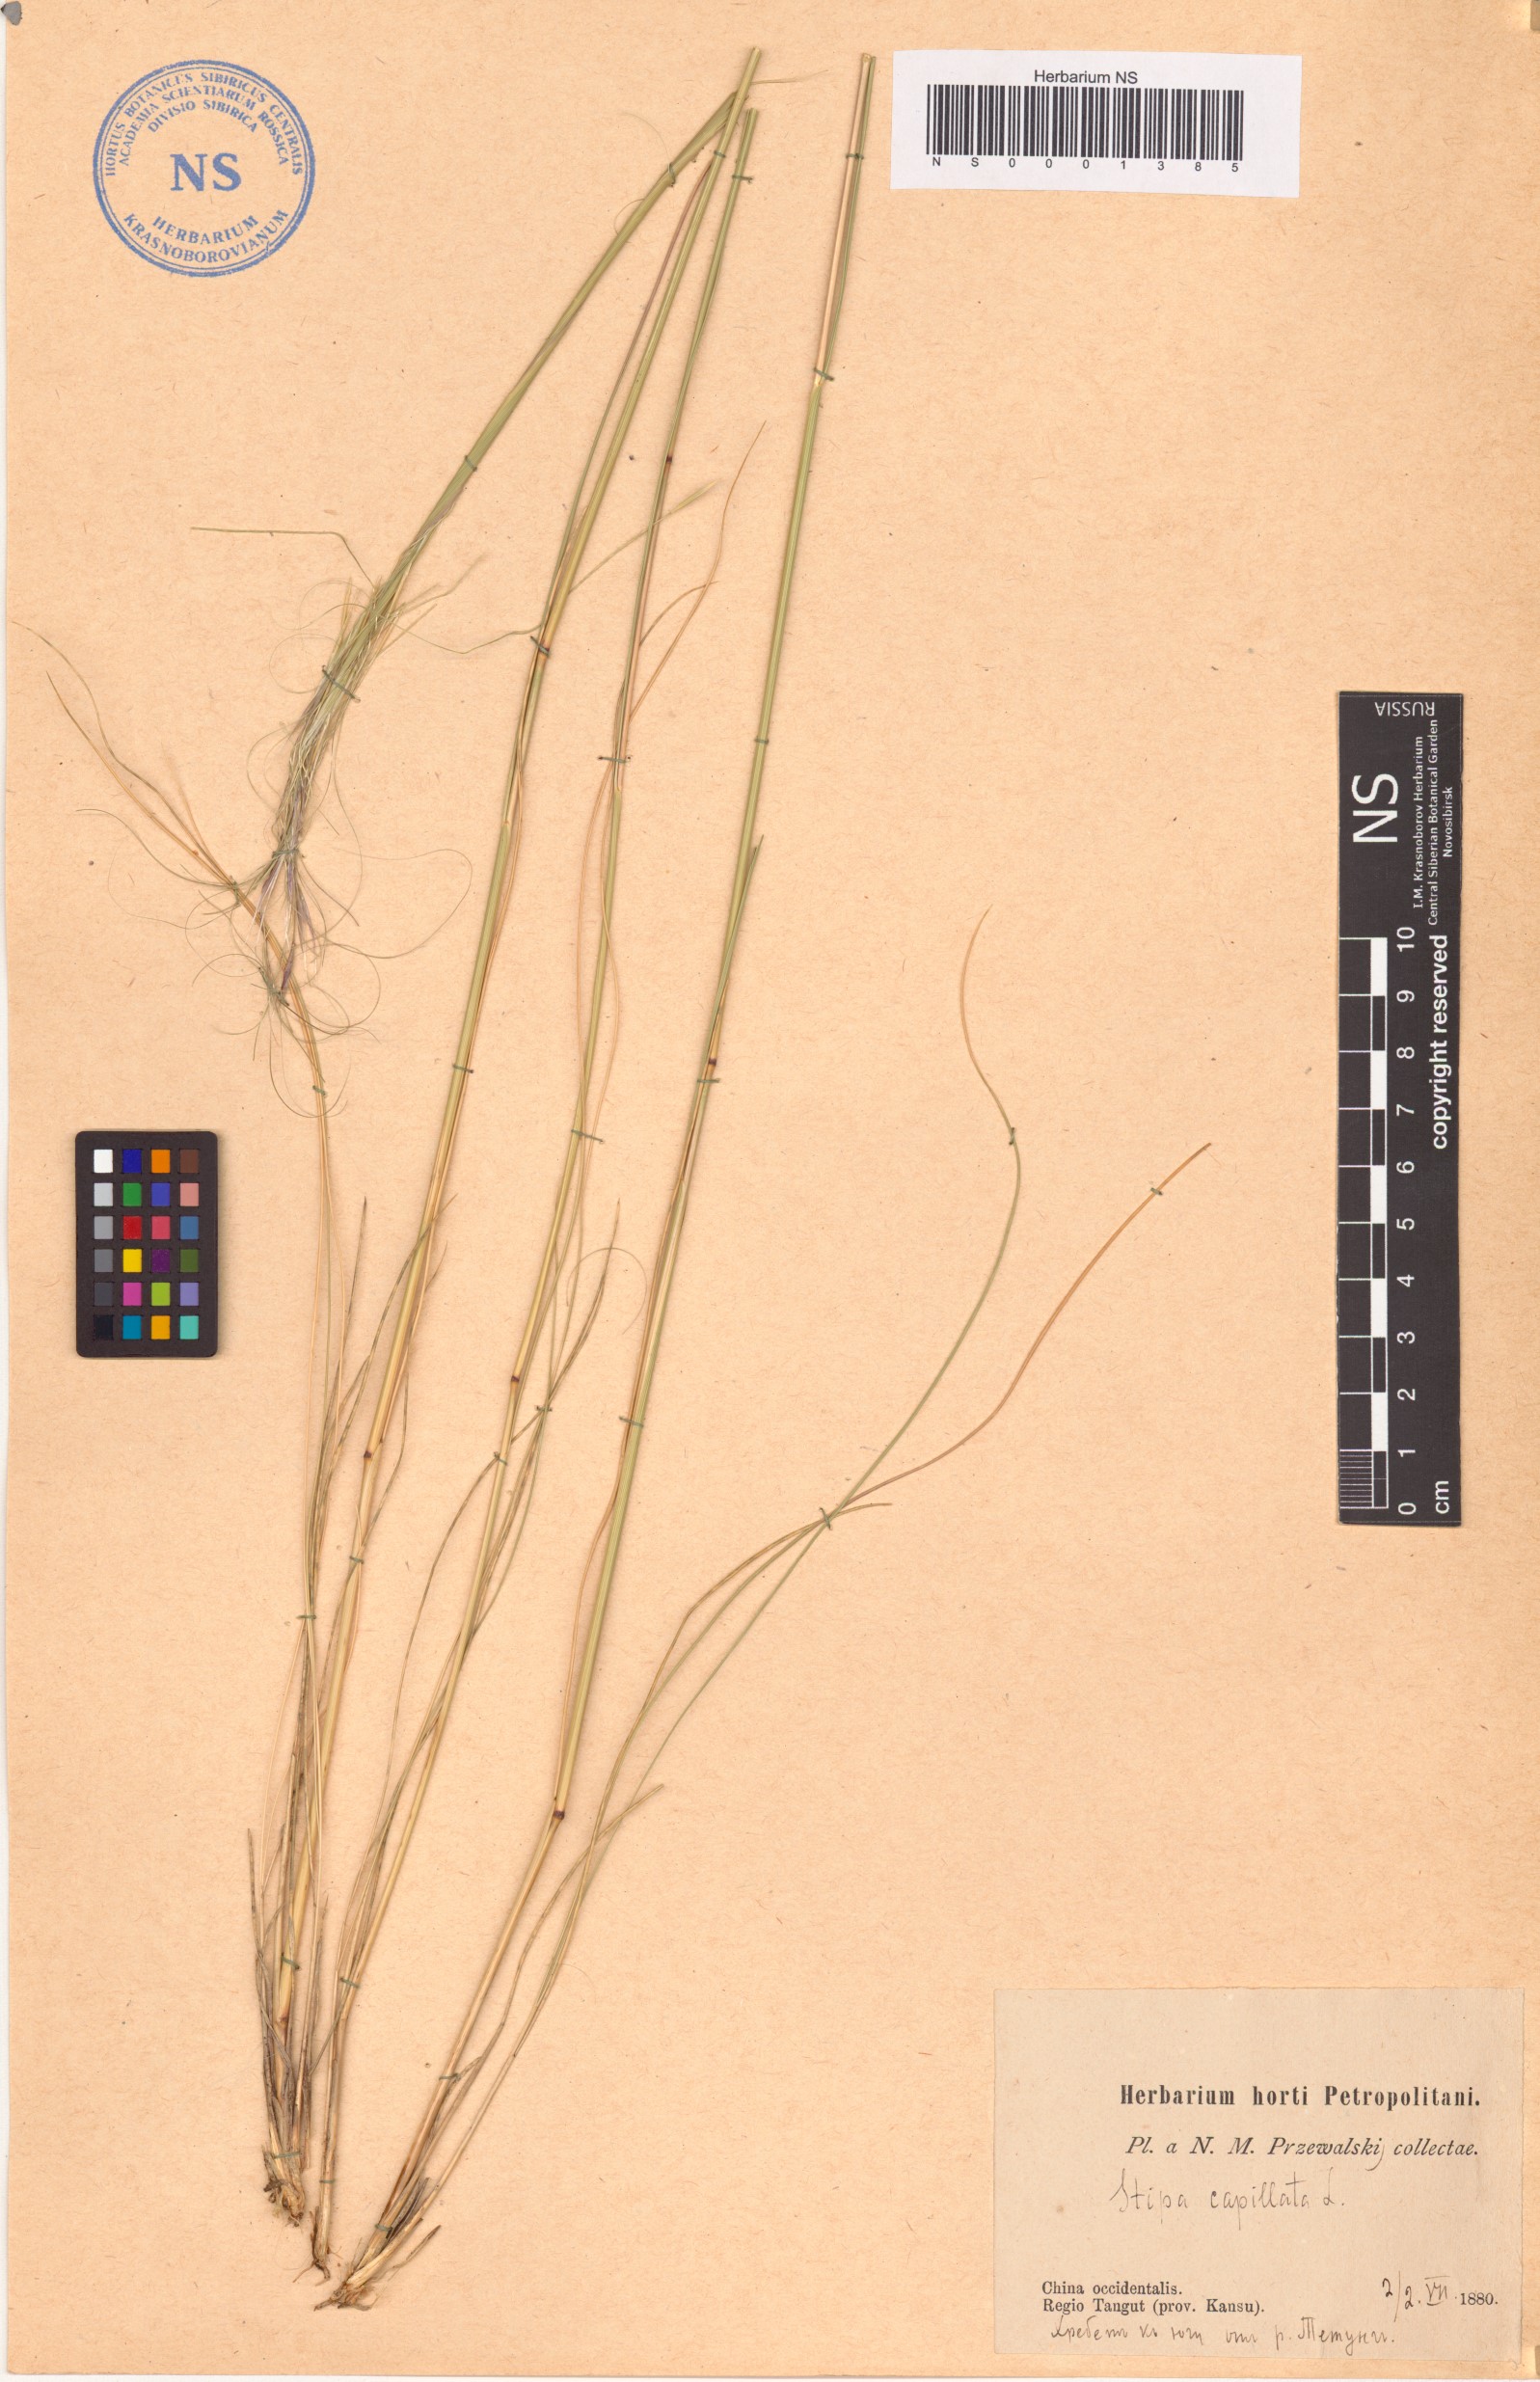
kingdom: Plantae
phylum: Tracheophyta
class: Liliopsida
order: Poales
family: Poaceae
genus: Stipa
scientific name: Stipa capillata
